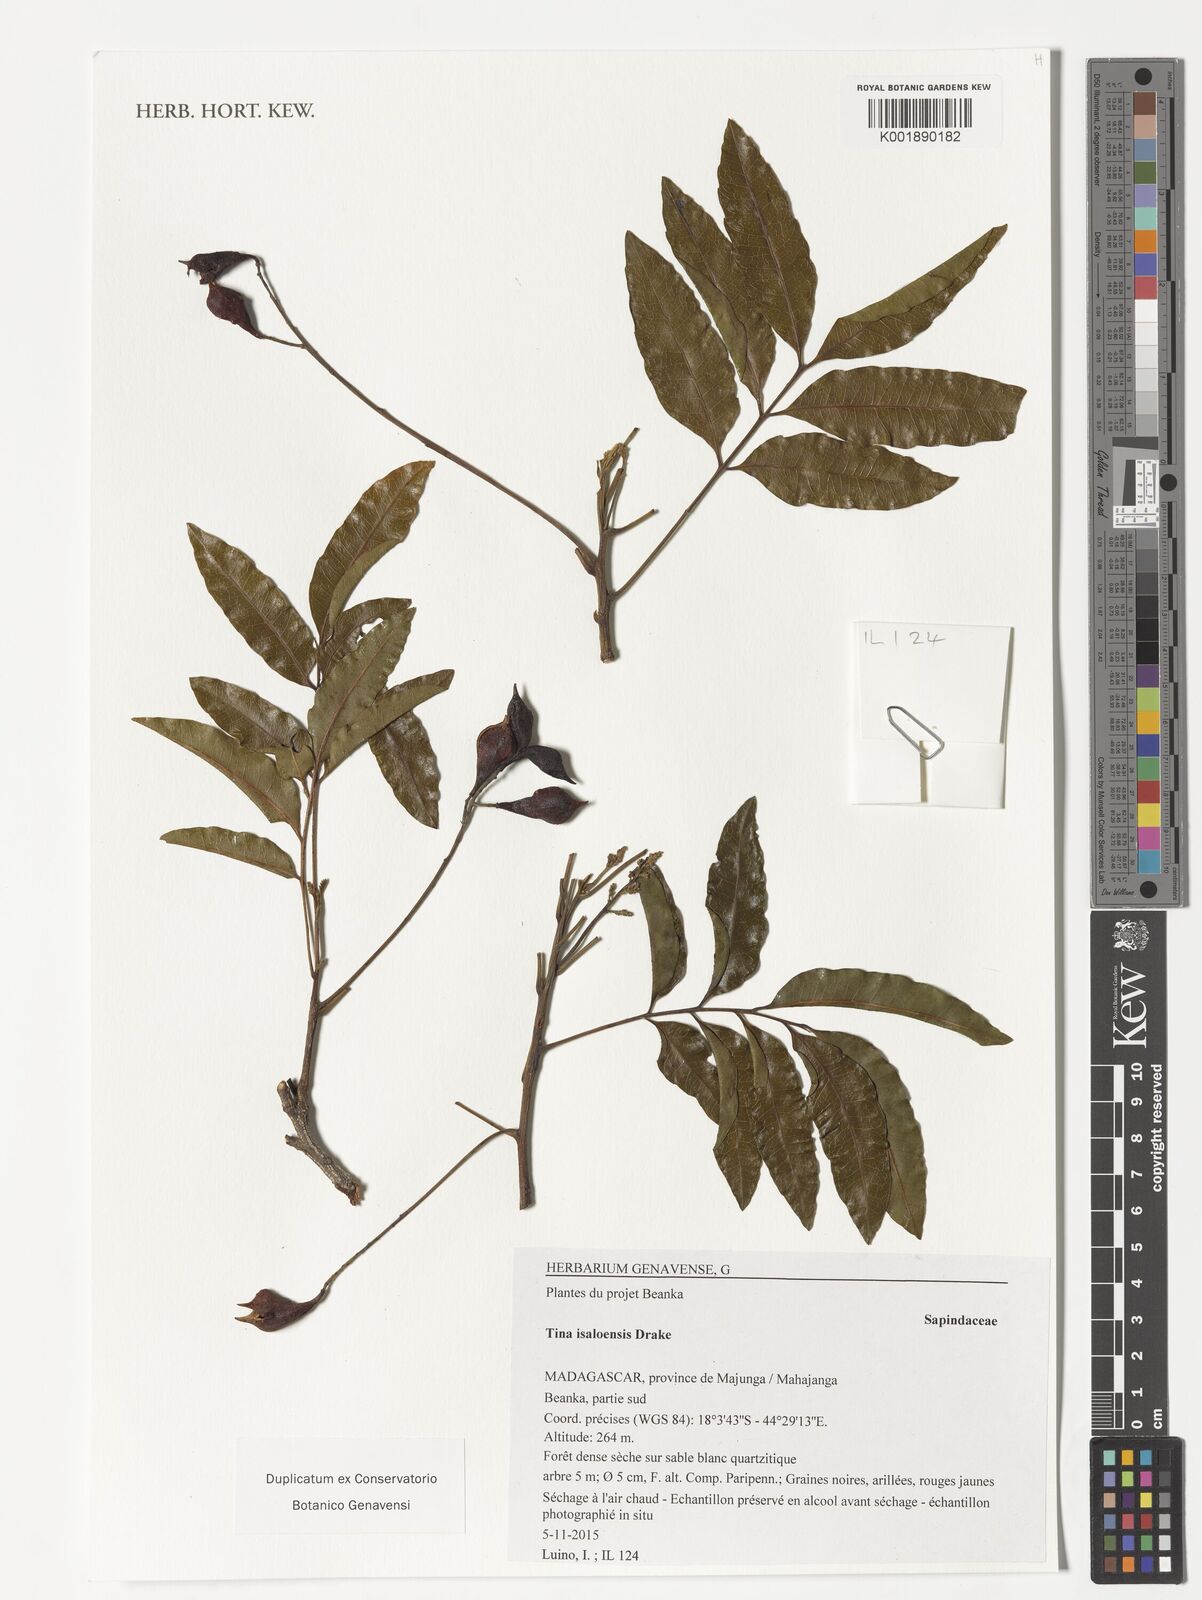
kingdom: Plantae
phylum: Tracheophyta
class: Magnoliopsida
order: Sapindales
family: Sapindaceae
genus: Tina
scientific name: Tina isaloensis
